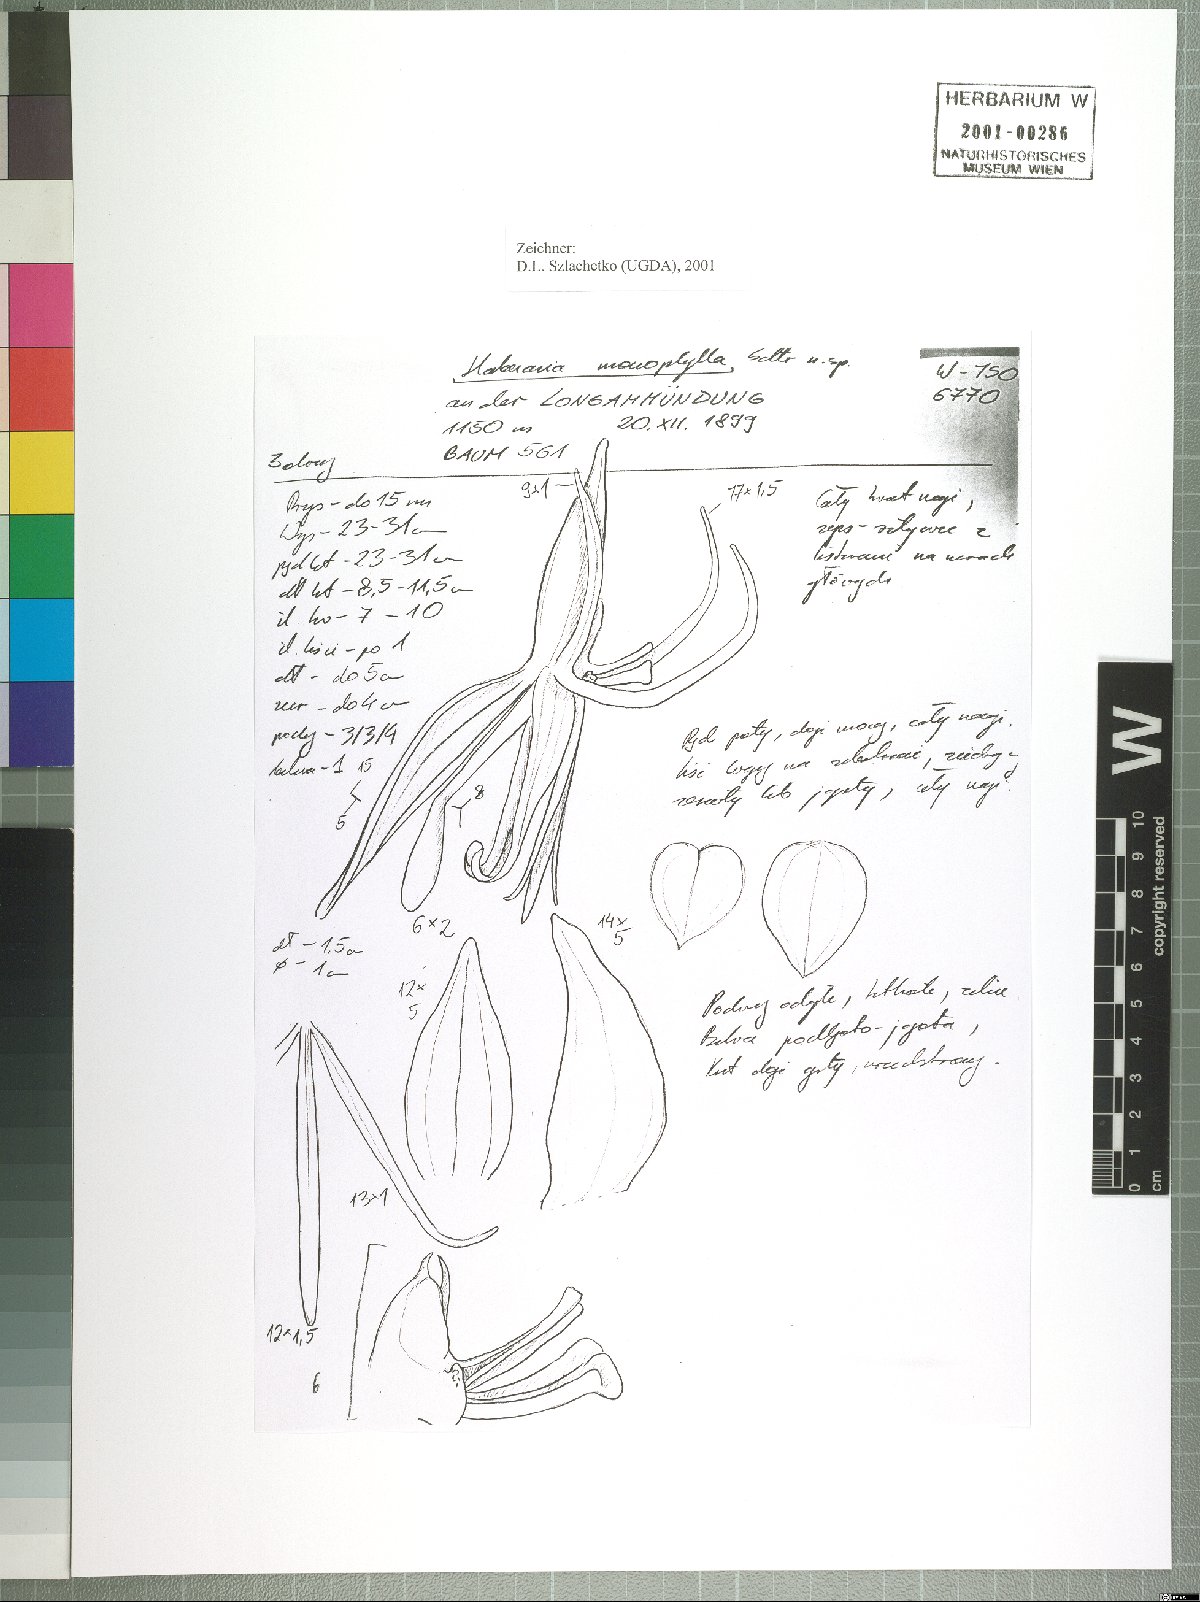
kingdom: Plantae
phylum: Tracheophyta
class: Liliopsida
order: Asparagales
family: Orchidaceae
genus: Habenaria
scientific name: Habenaria verdickii
